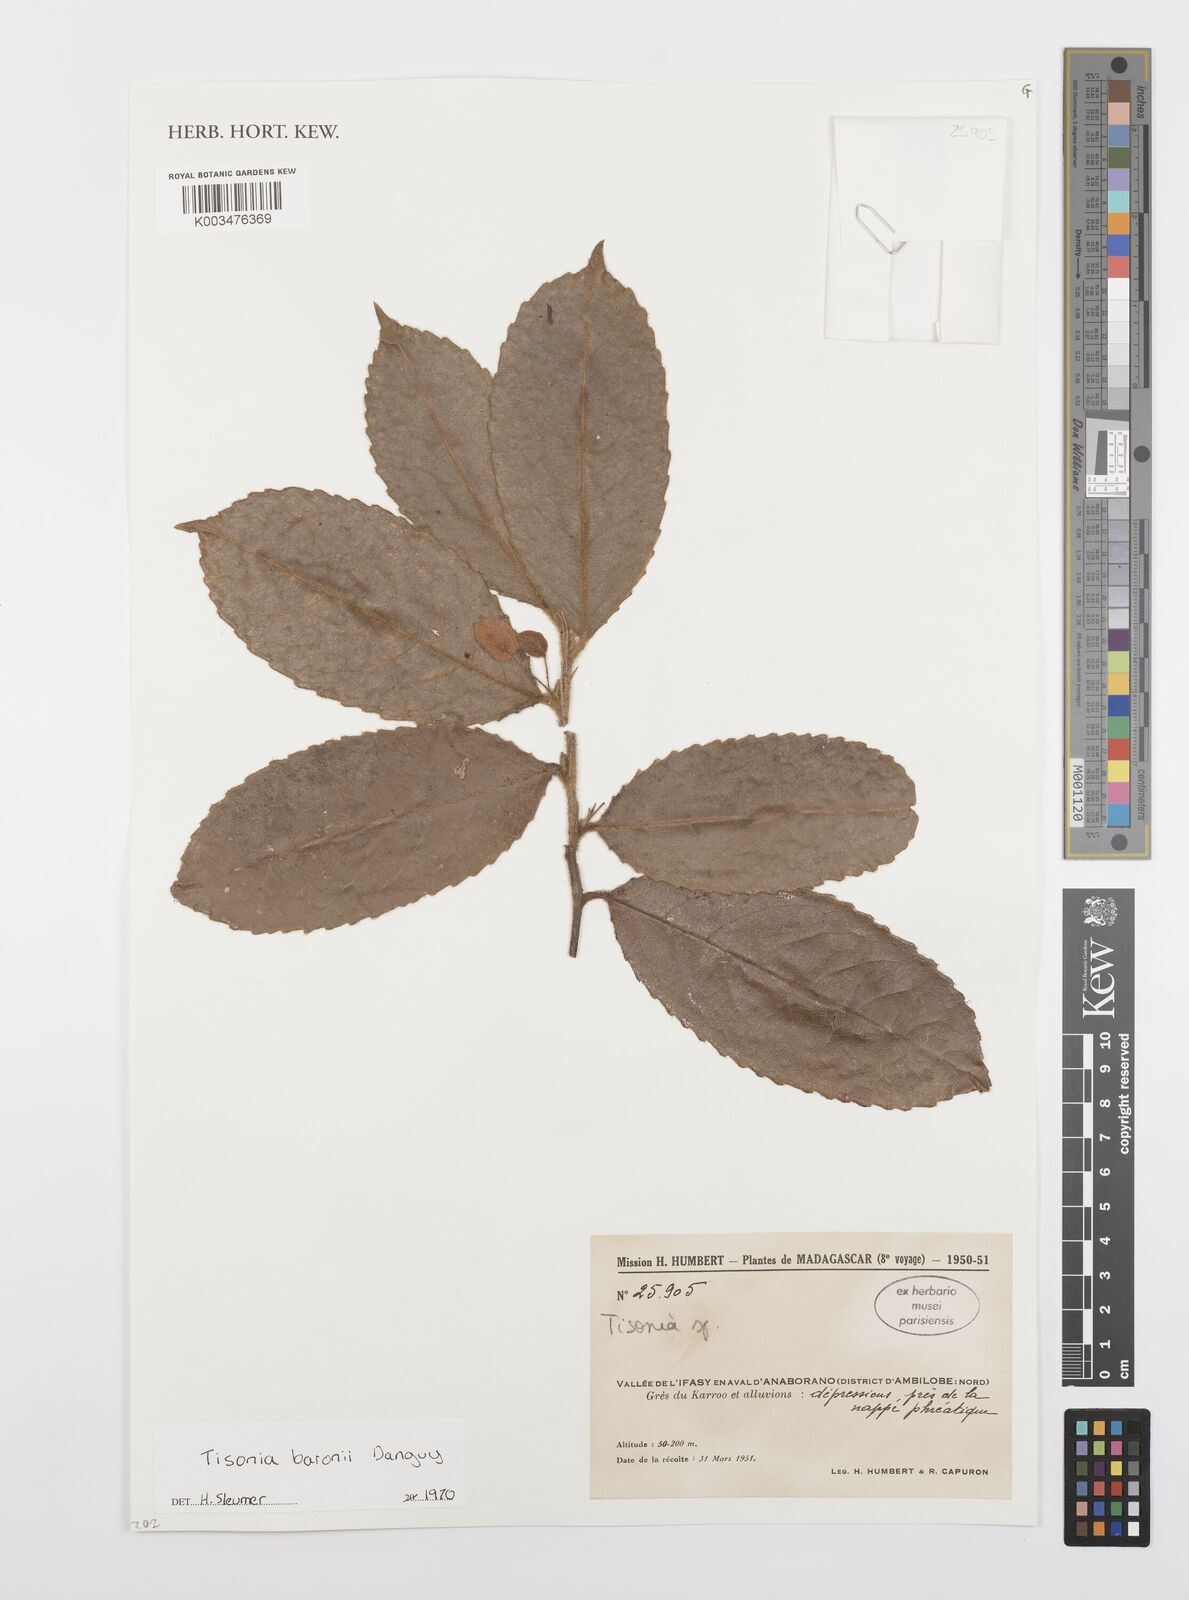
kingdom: Plantae
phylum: Tracheophyta
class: Magnoliopsida
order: Malpighiales
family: Salicaceae
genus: Tisonia
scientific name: Tisonia
